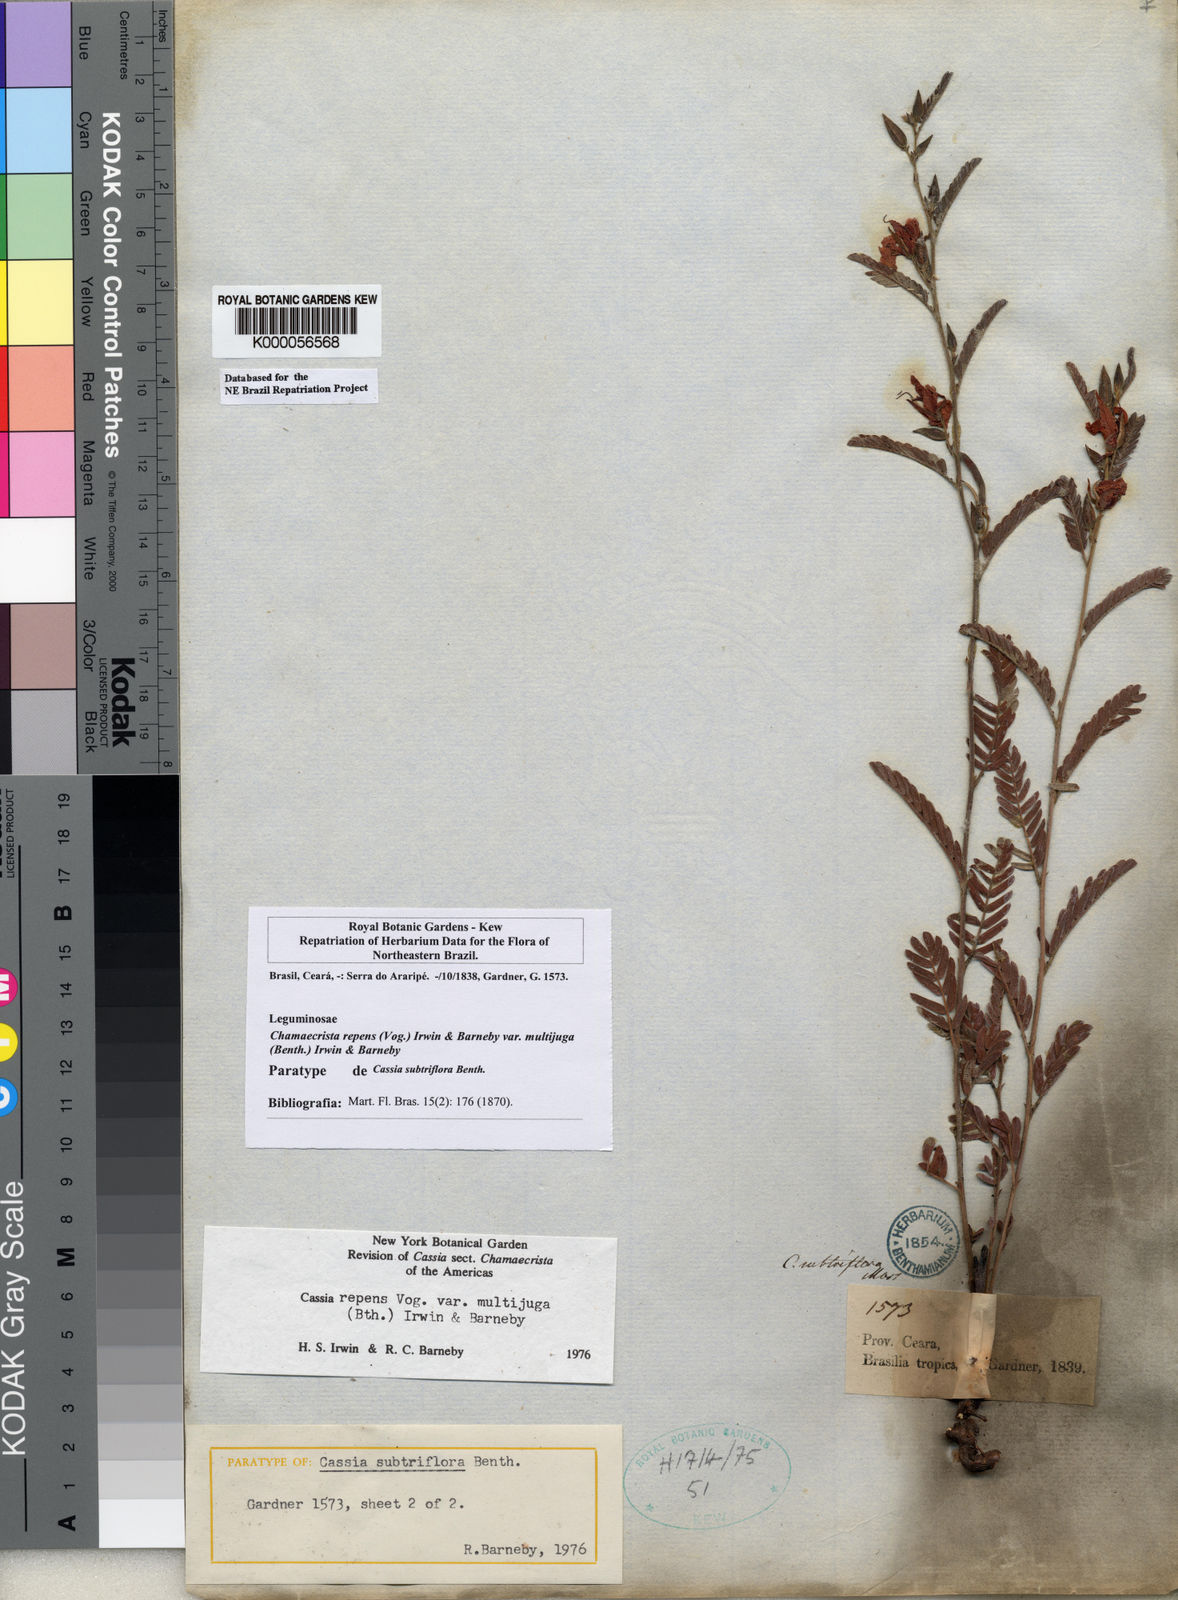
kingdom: Plantae
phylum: Tracheophyta
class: Magnoliopsida
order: Fabales
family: Fabaceae
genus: Chamaecrista
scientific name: Chamaecrista repens
